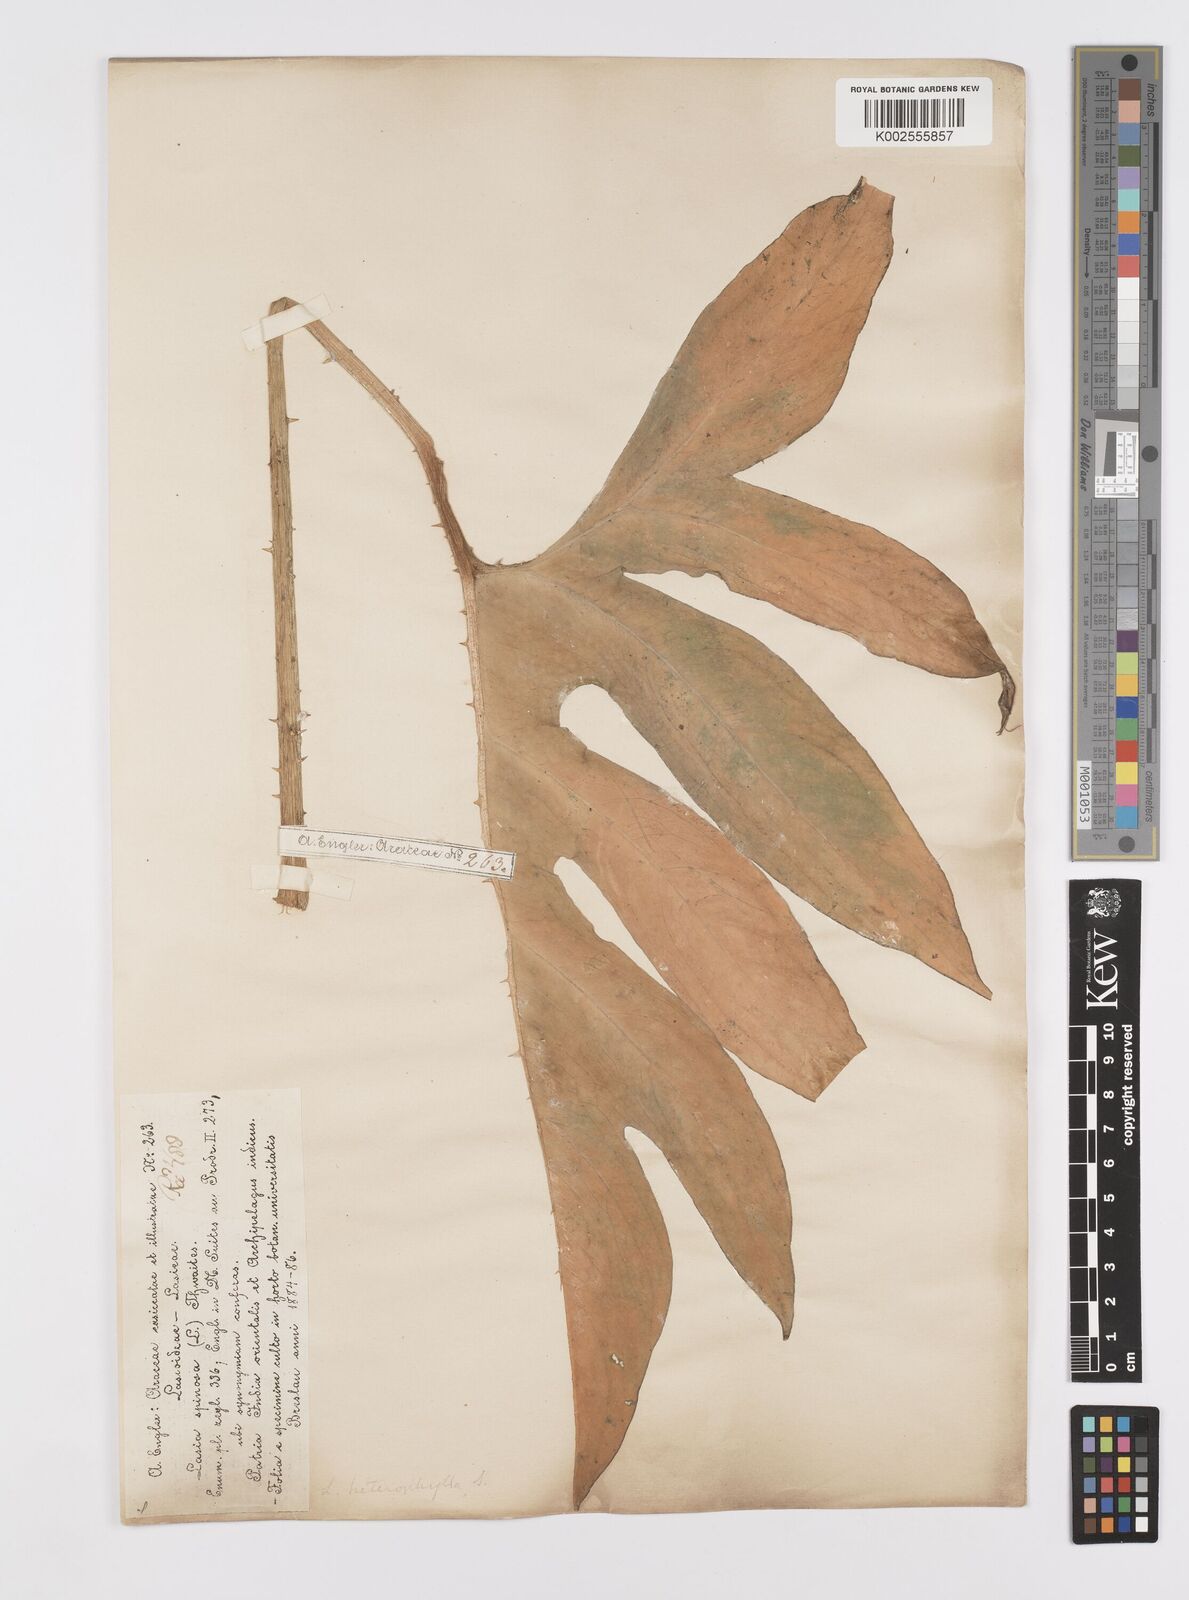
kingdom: Plantae
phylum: Tracheophyta
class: Liliopsida
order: Alismatales
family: Araceae
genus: Lasia
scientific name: Lasia spinosa
